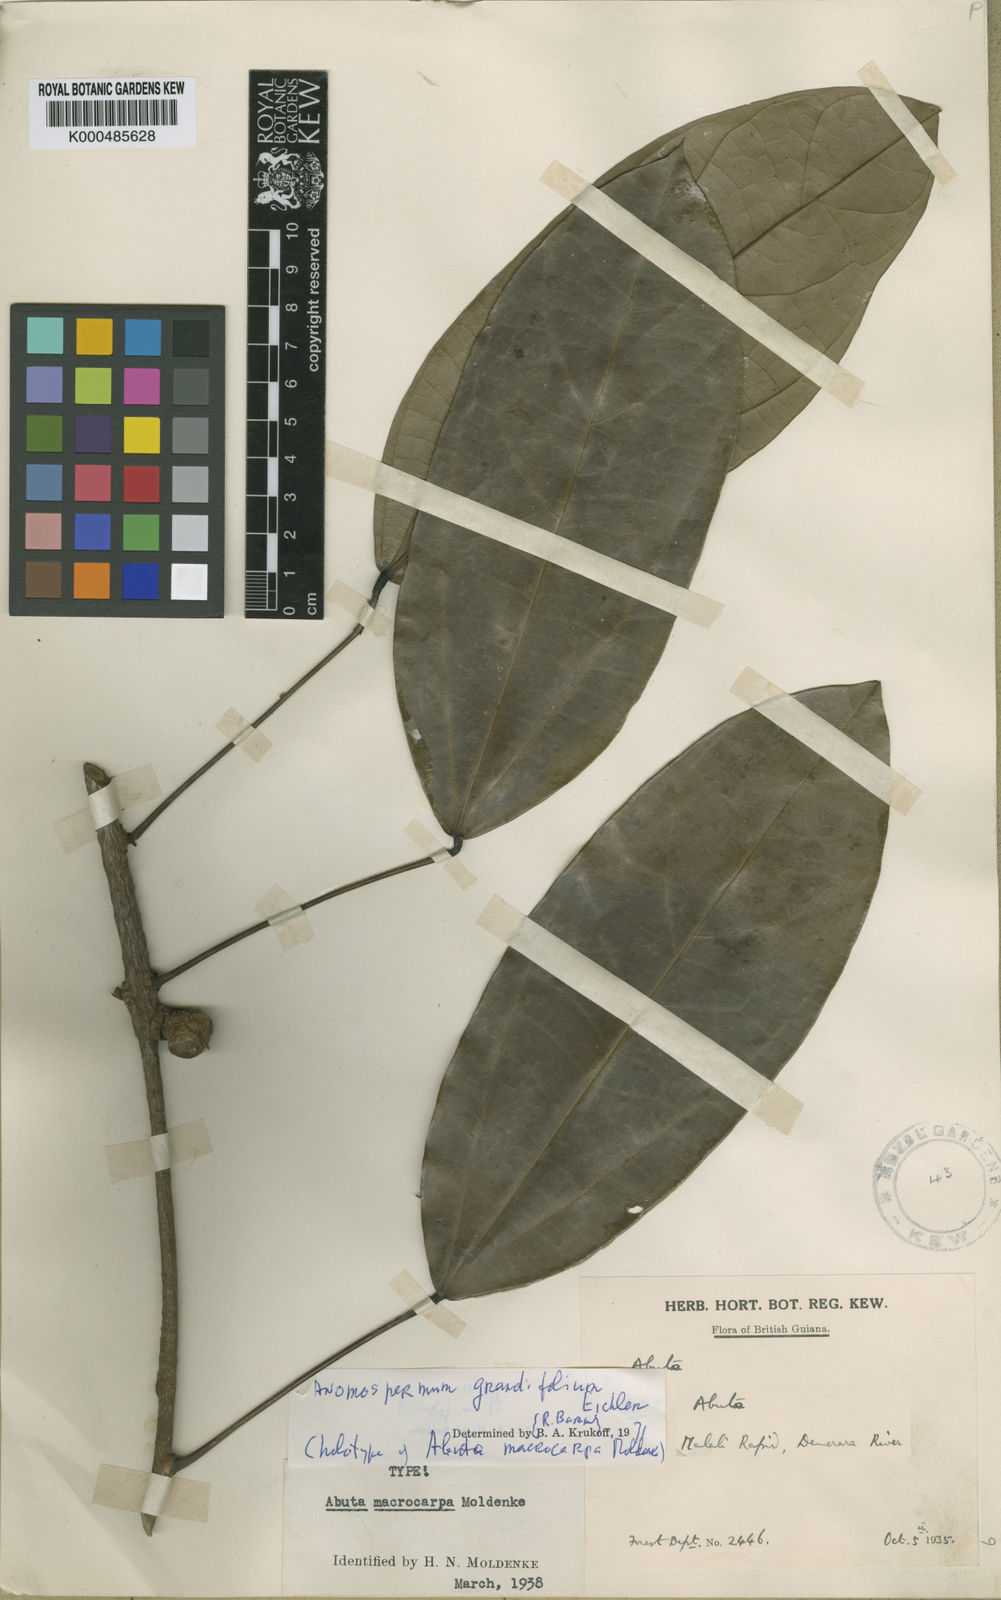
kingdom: Plantae
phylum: Tracheophyta
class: Magnoliopsida
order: Ranunculales
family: Menispermaceae
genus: Elissarrhena
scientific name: Elissarrhena longipes
